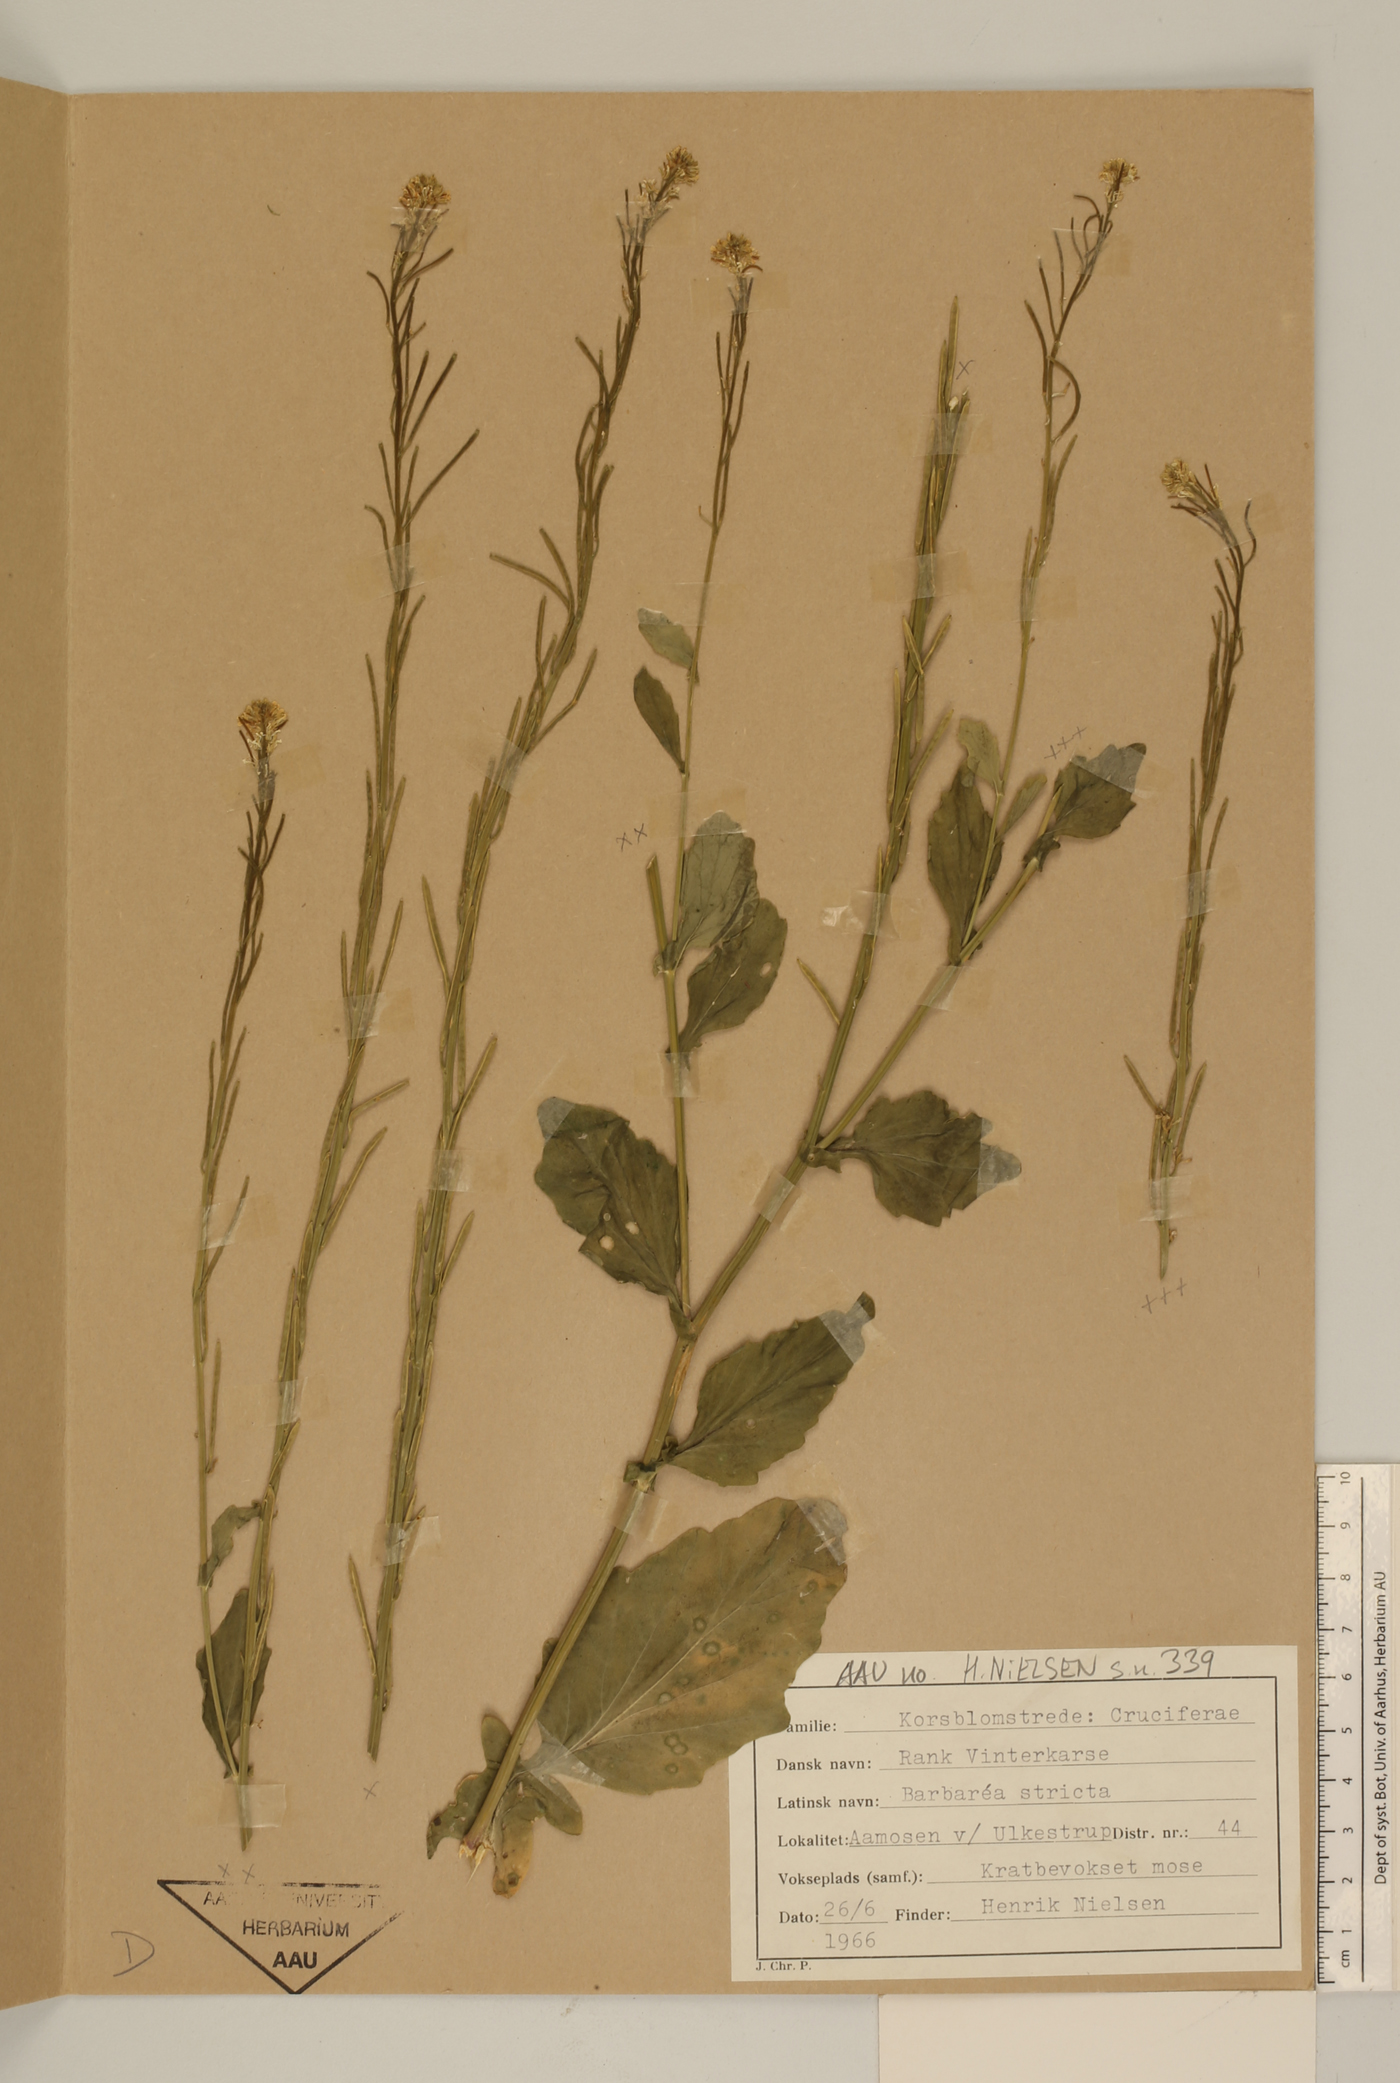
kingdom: Plantae
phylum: Tracheophyta
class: Magnoliopsida
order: Brassicales
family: Brassicaceae
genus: Barbarea
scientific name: Barbarea stricta
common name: Small-flowered winter-cress
